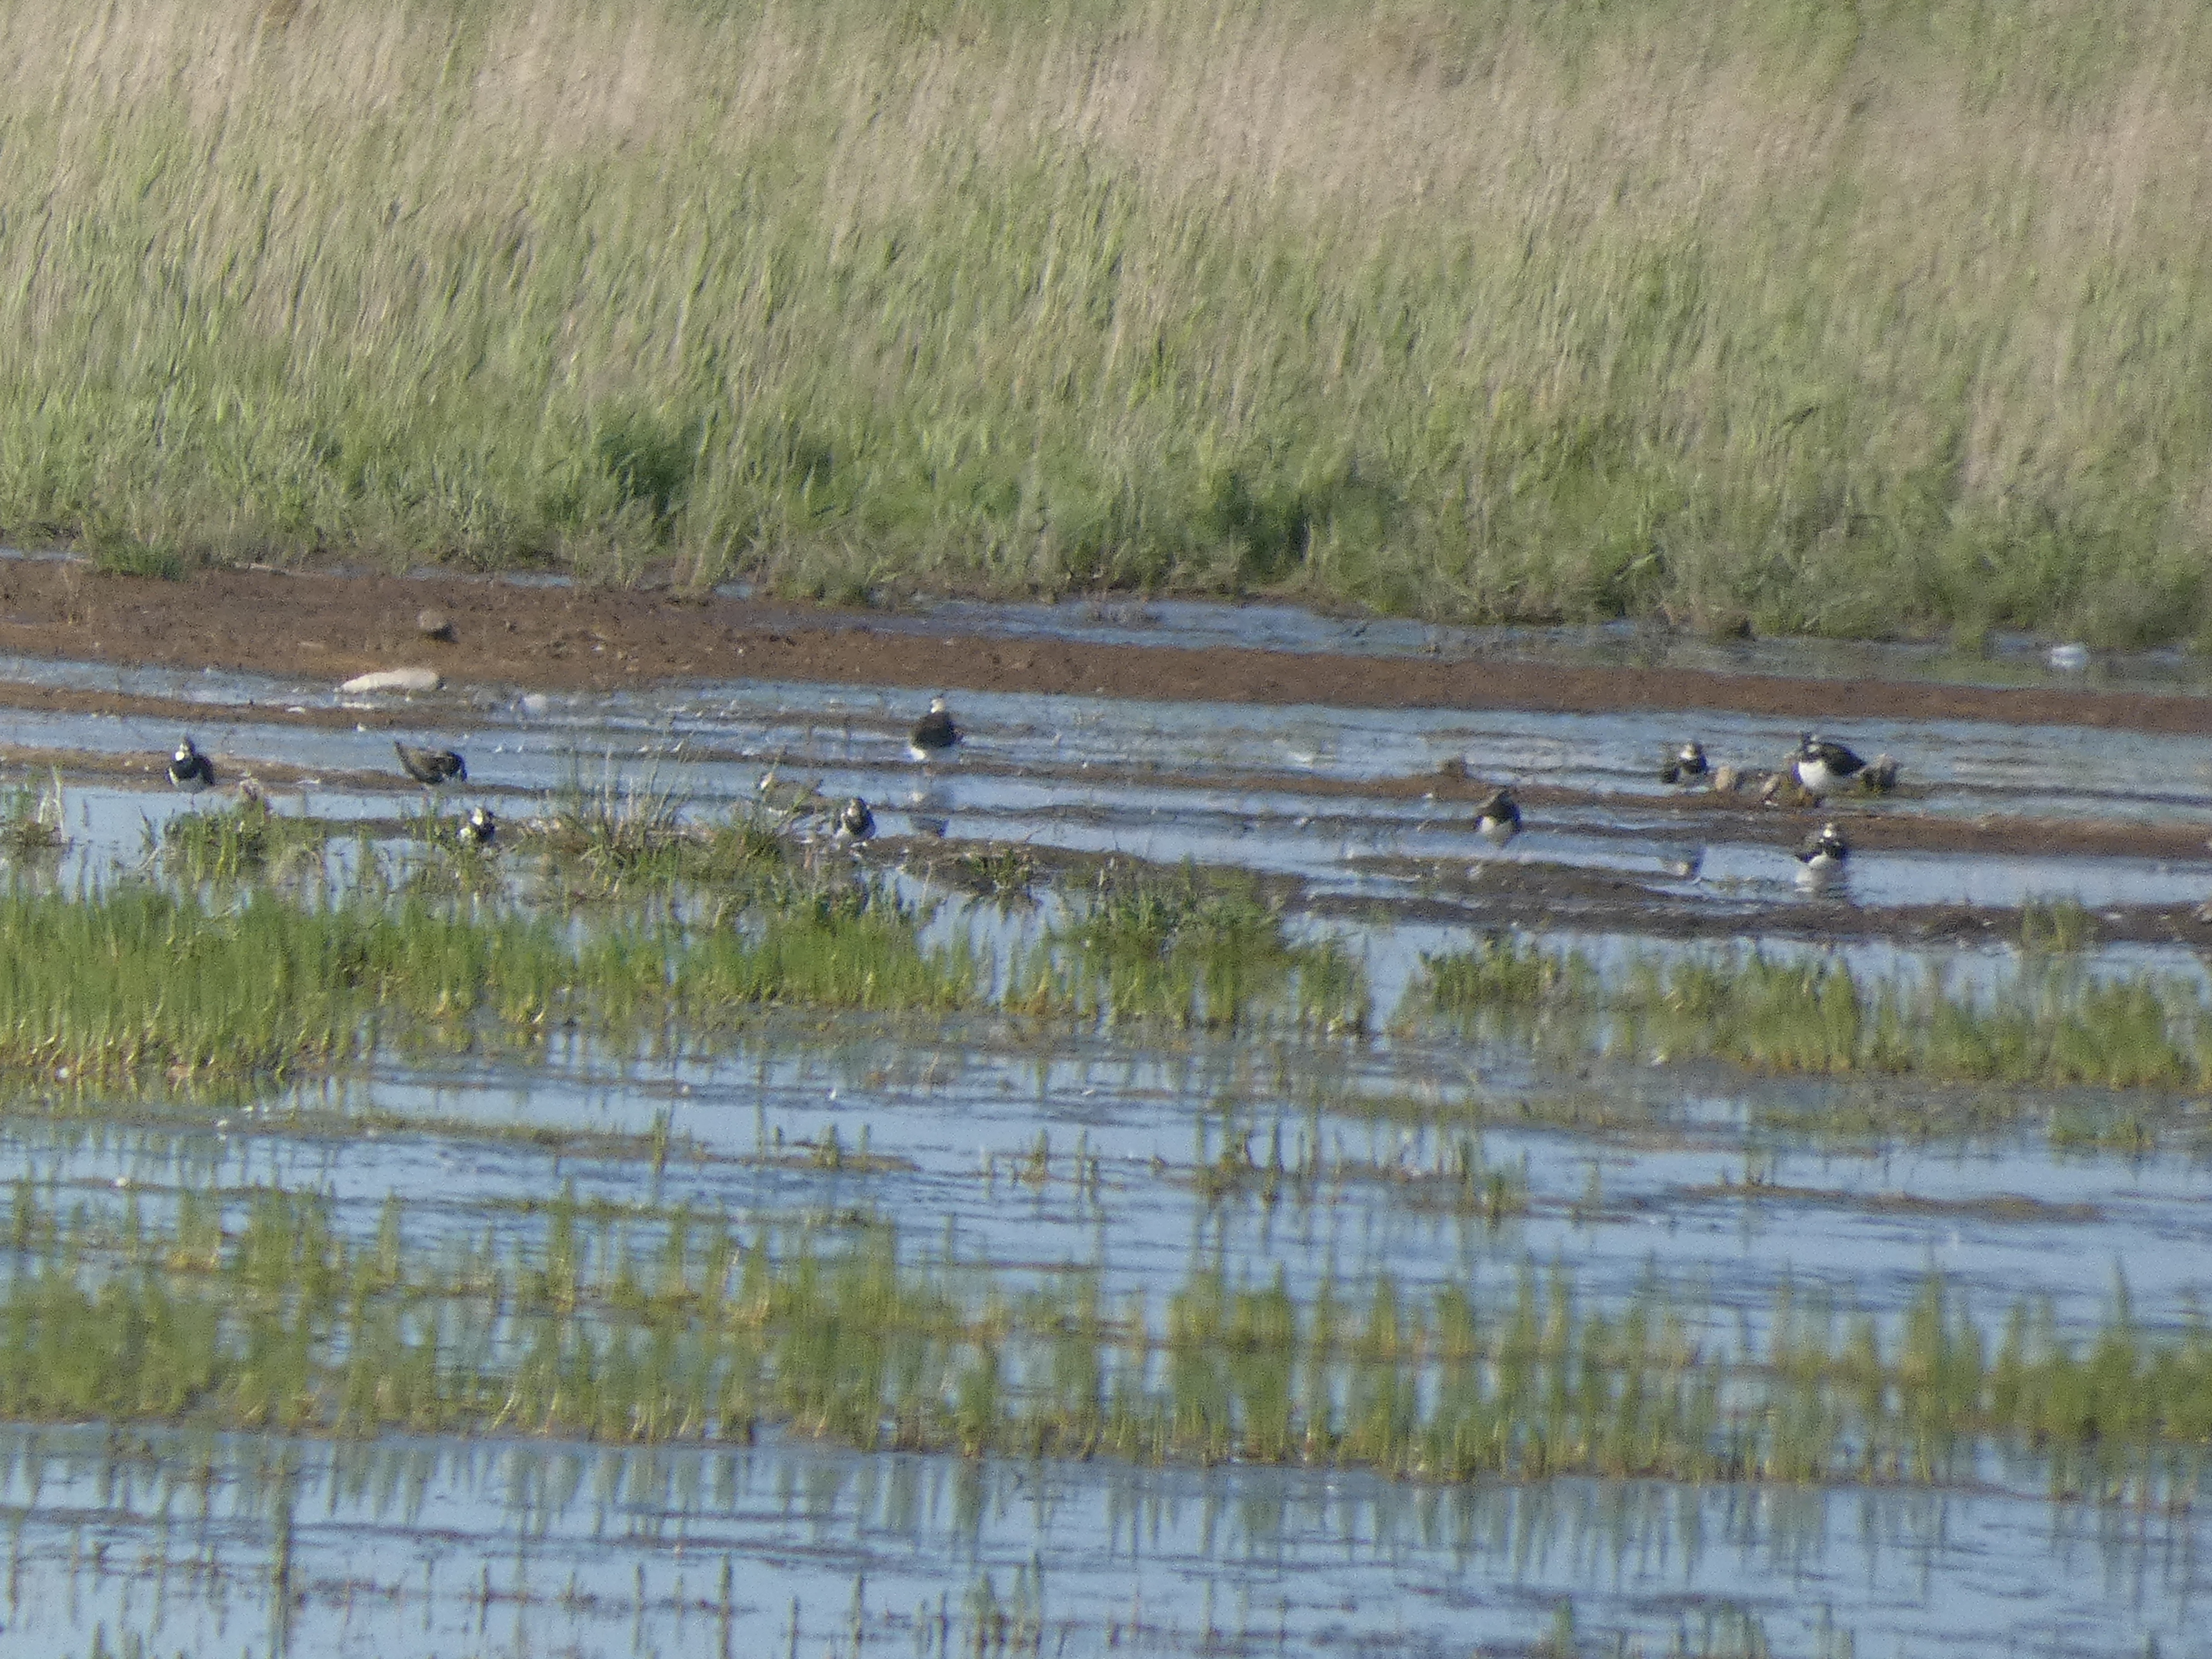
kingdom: Animalia
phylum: Chordata
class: Aves
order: Charadriiformes
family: Charadriidae
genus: Vanellus
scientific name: Vanellus vanellus
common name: Vibe
